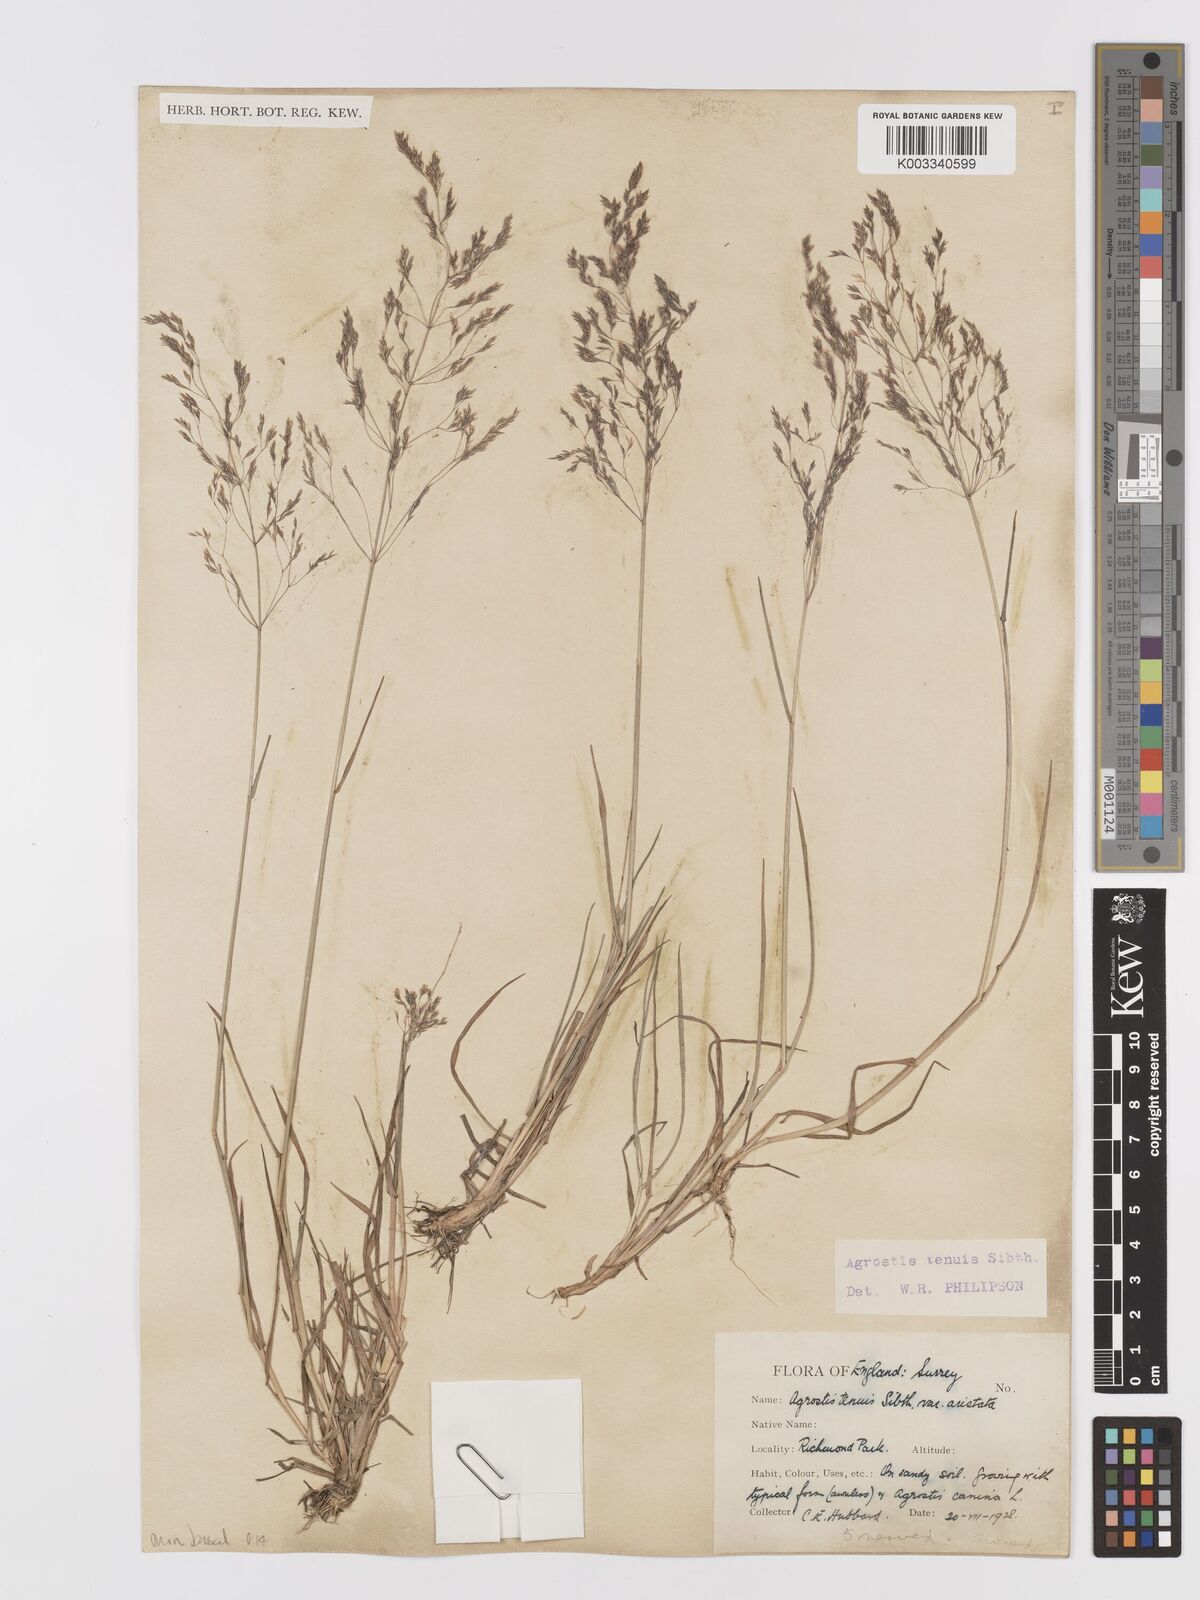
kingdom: Plantae
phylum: Tracheophyta
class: Liliopsida
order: Poales
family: Poaceae
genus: Agrostis
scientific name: Agrostis capillaris
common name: Colonial bentgrass
